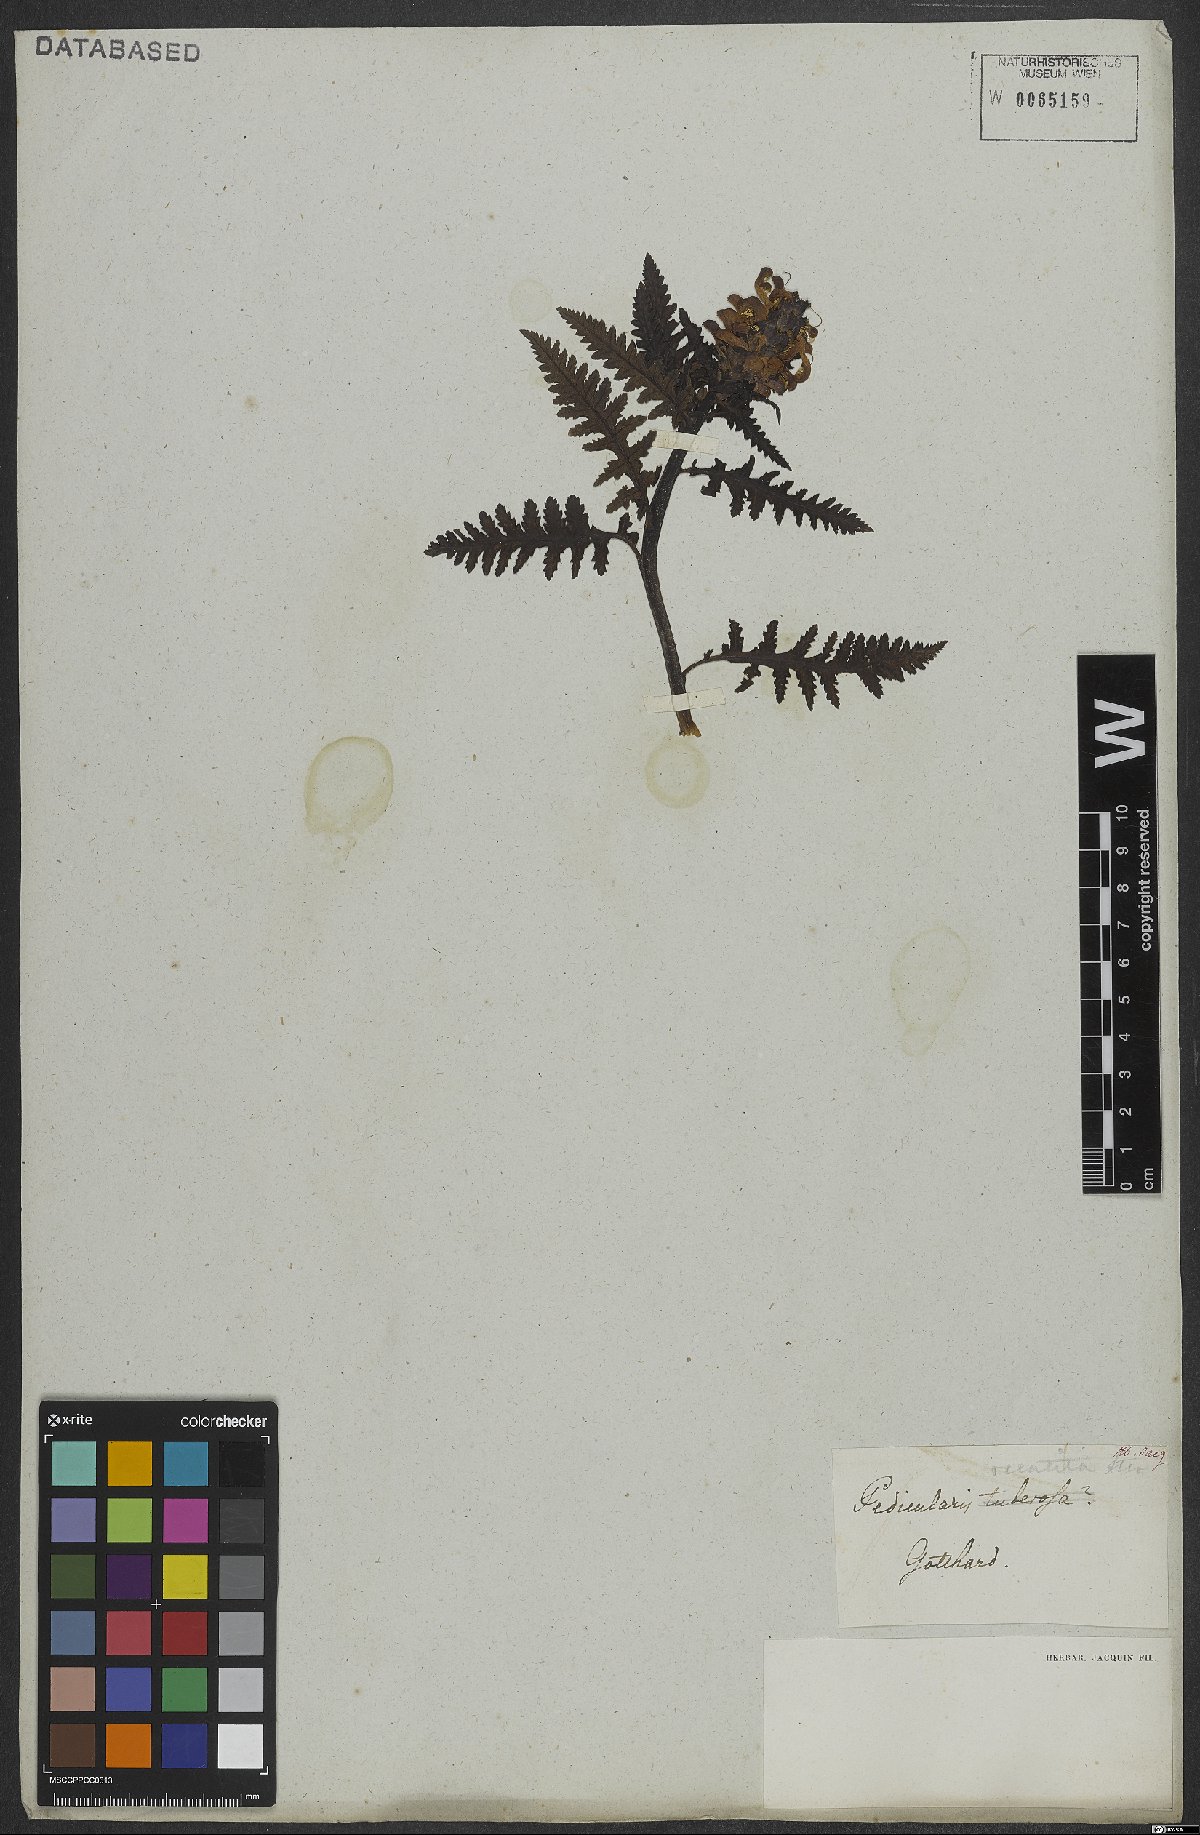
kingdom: Plantae
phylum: Tracheophyta
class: Magnoliopsida
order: Lamiales
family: Orobanchaceae
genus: Pedicularis
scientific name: Pedicularis recutita
